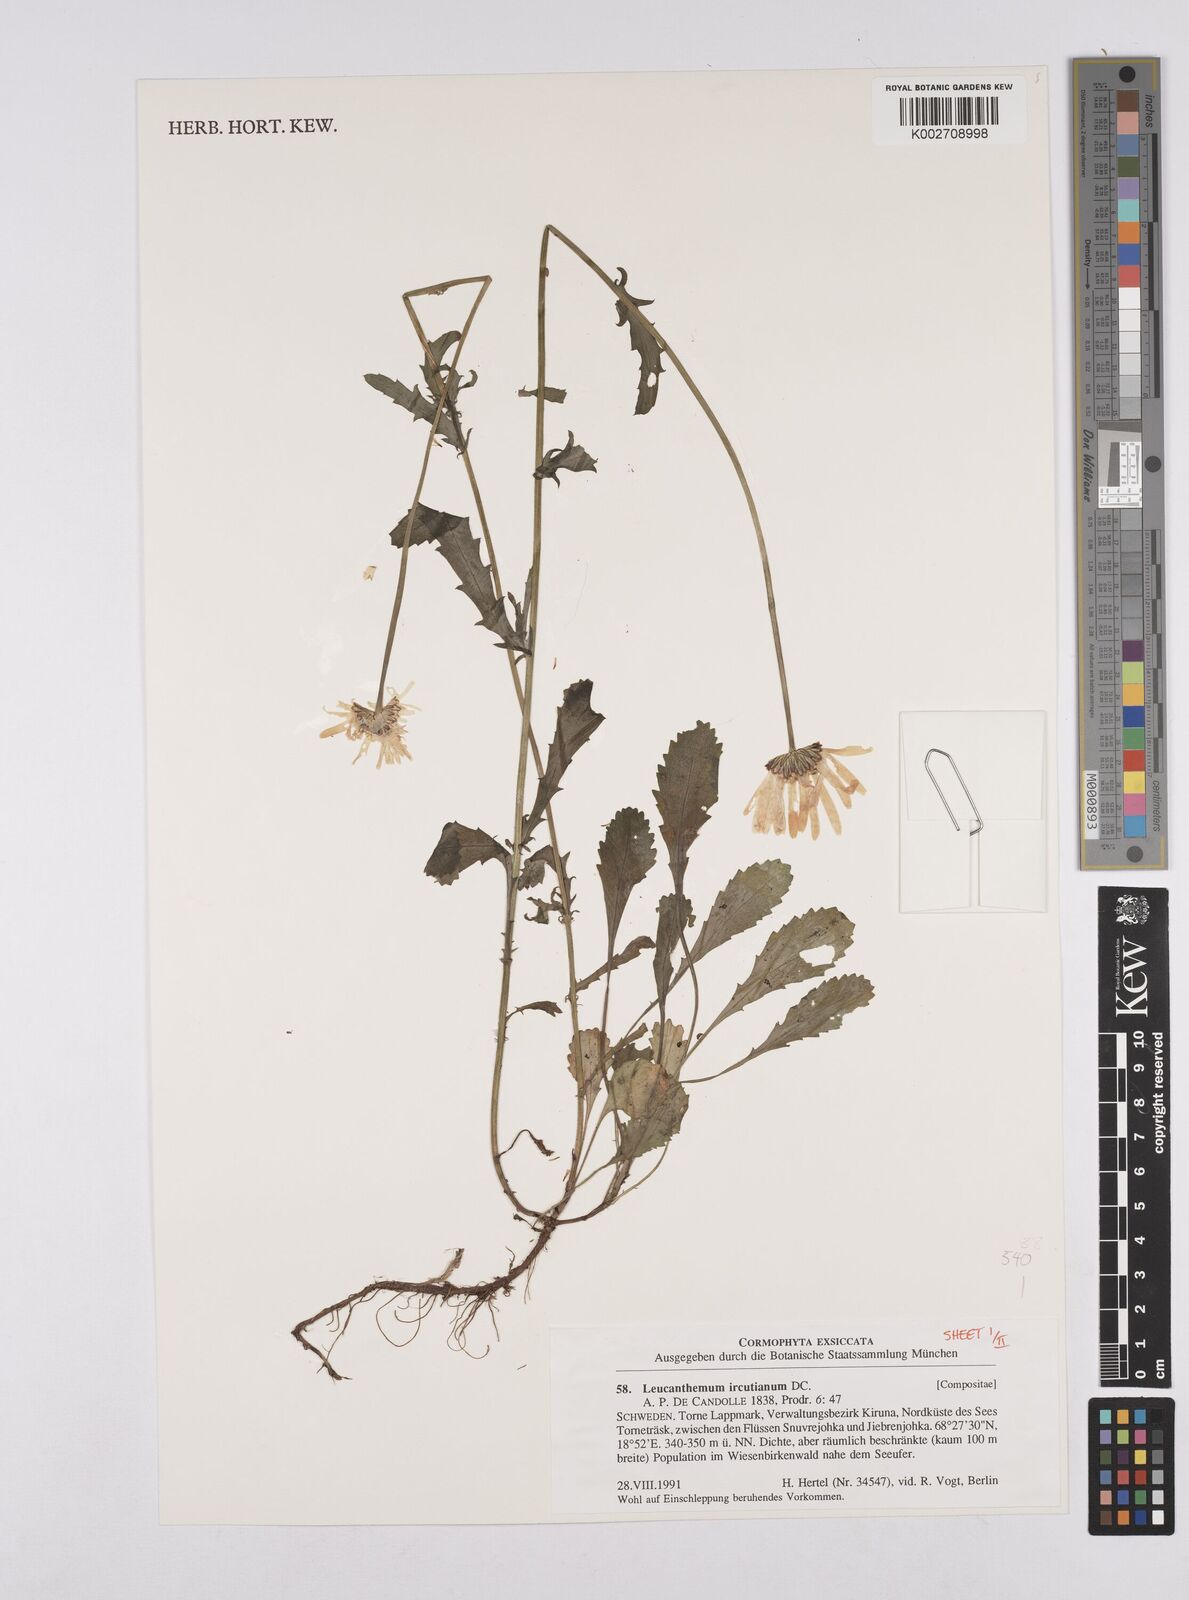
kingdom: Plantae
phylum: Tracheophyta
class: Magnoliopsida
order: Asterales
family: Asteraceae
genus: Leucanthemum
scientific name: Leucanthemum ircutianum
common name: Daisy
